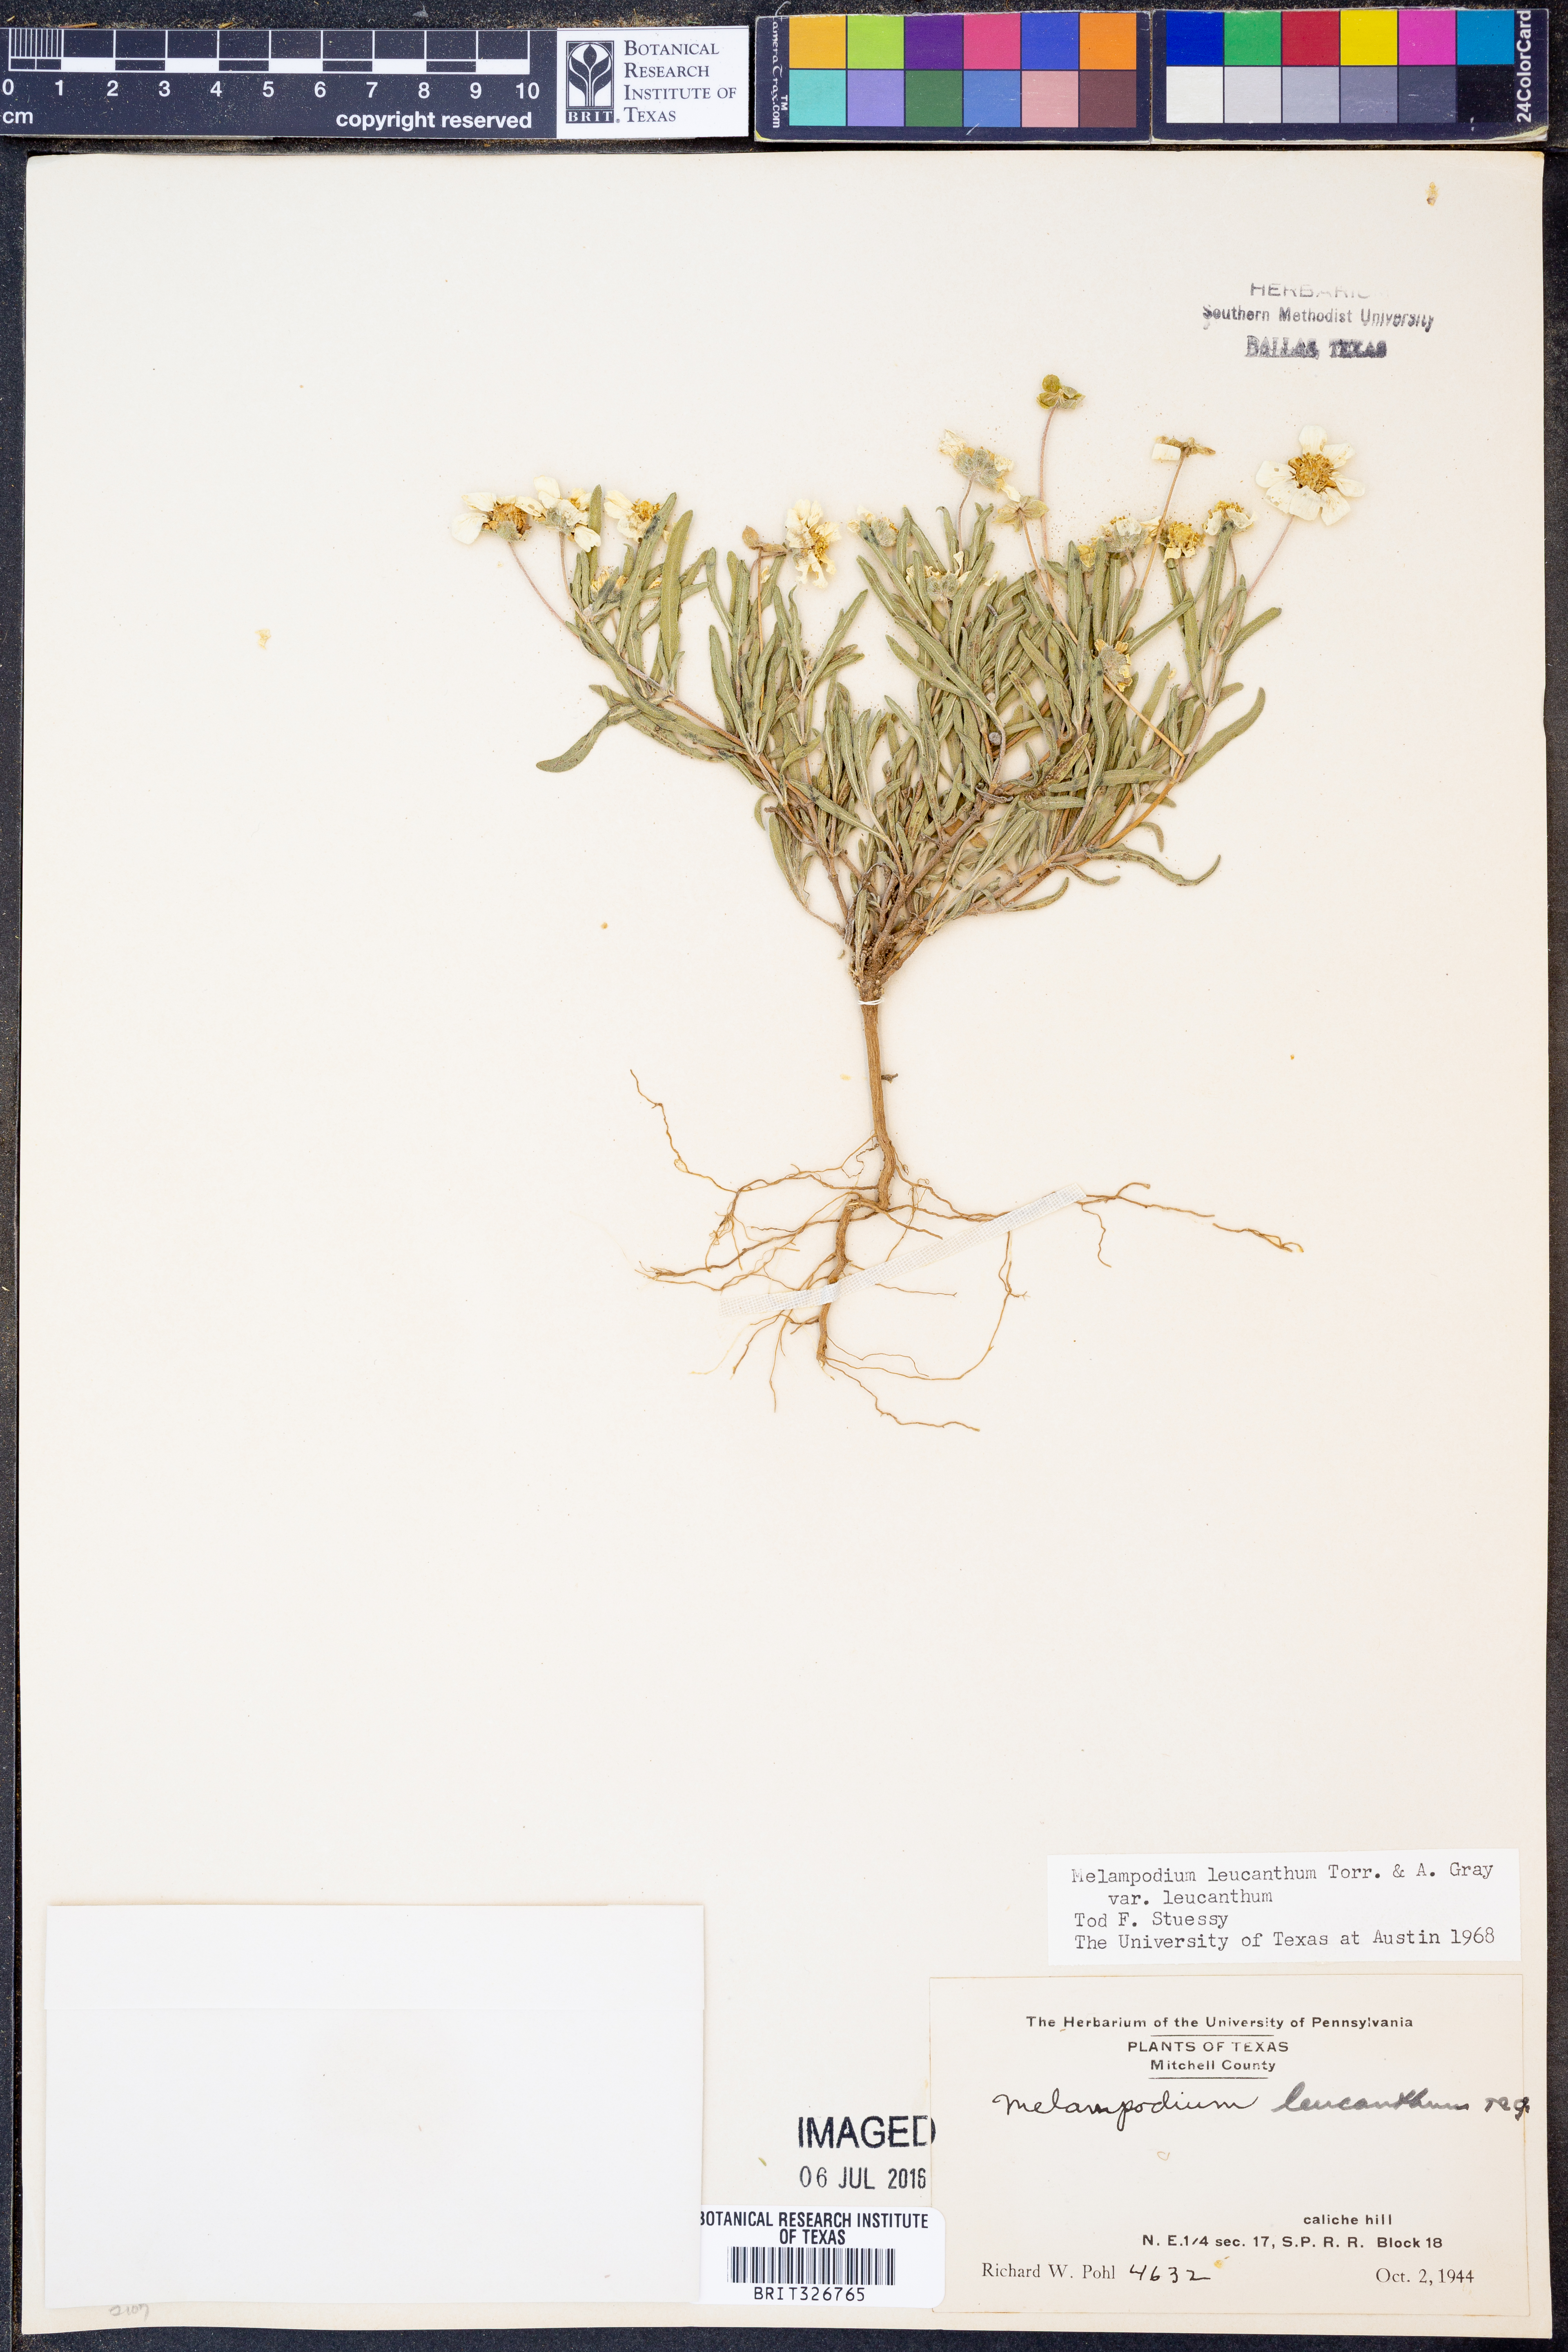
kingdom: Plantae
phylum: Tracheophyta
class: Magnoliopsida
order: Asterales
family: Asteraceae
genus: Melampodium
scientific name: Melampodium leucanthum
